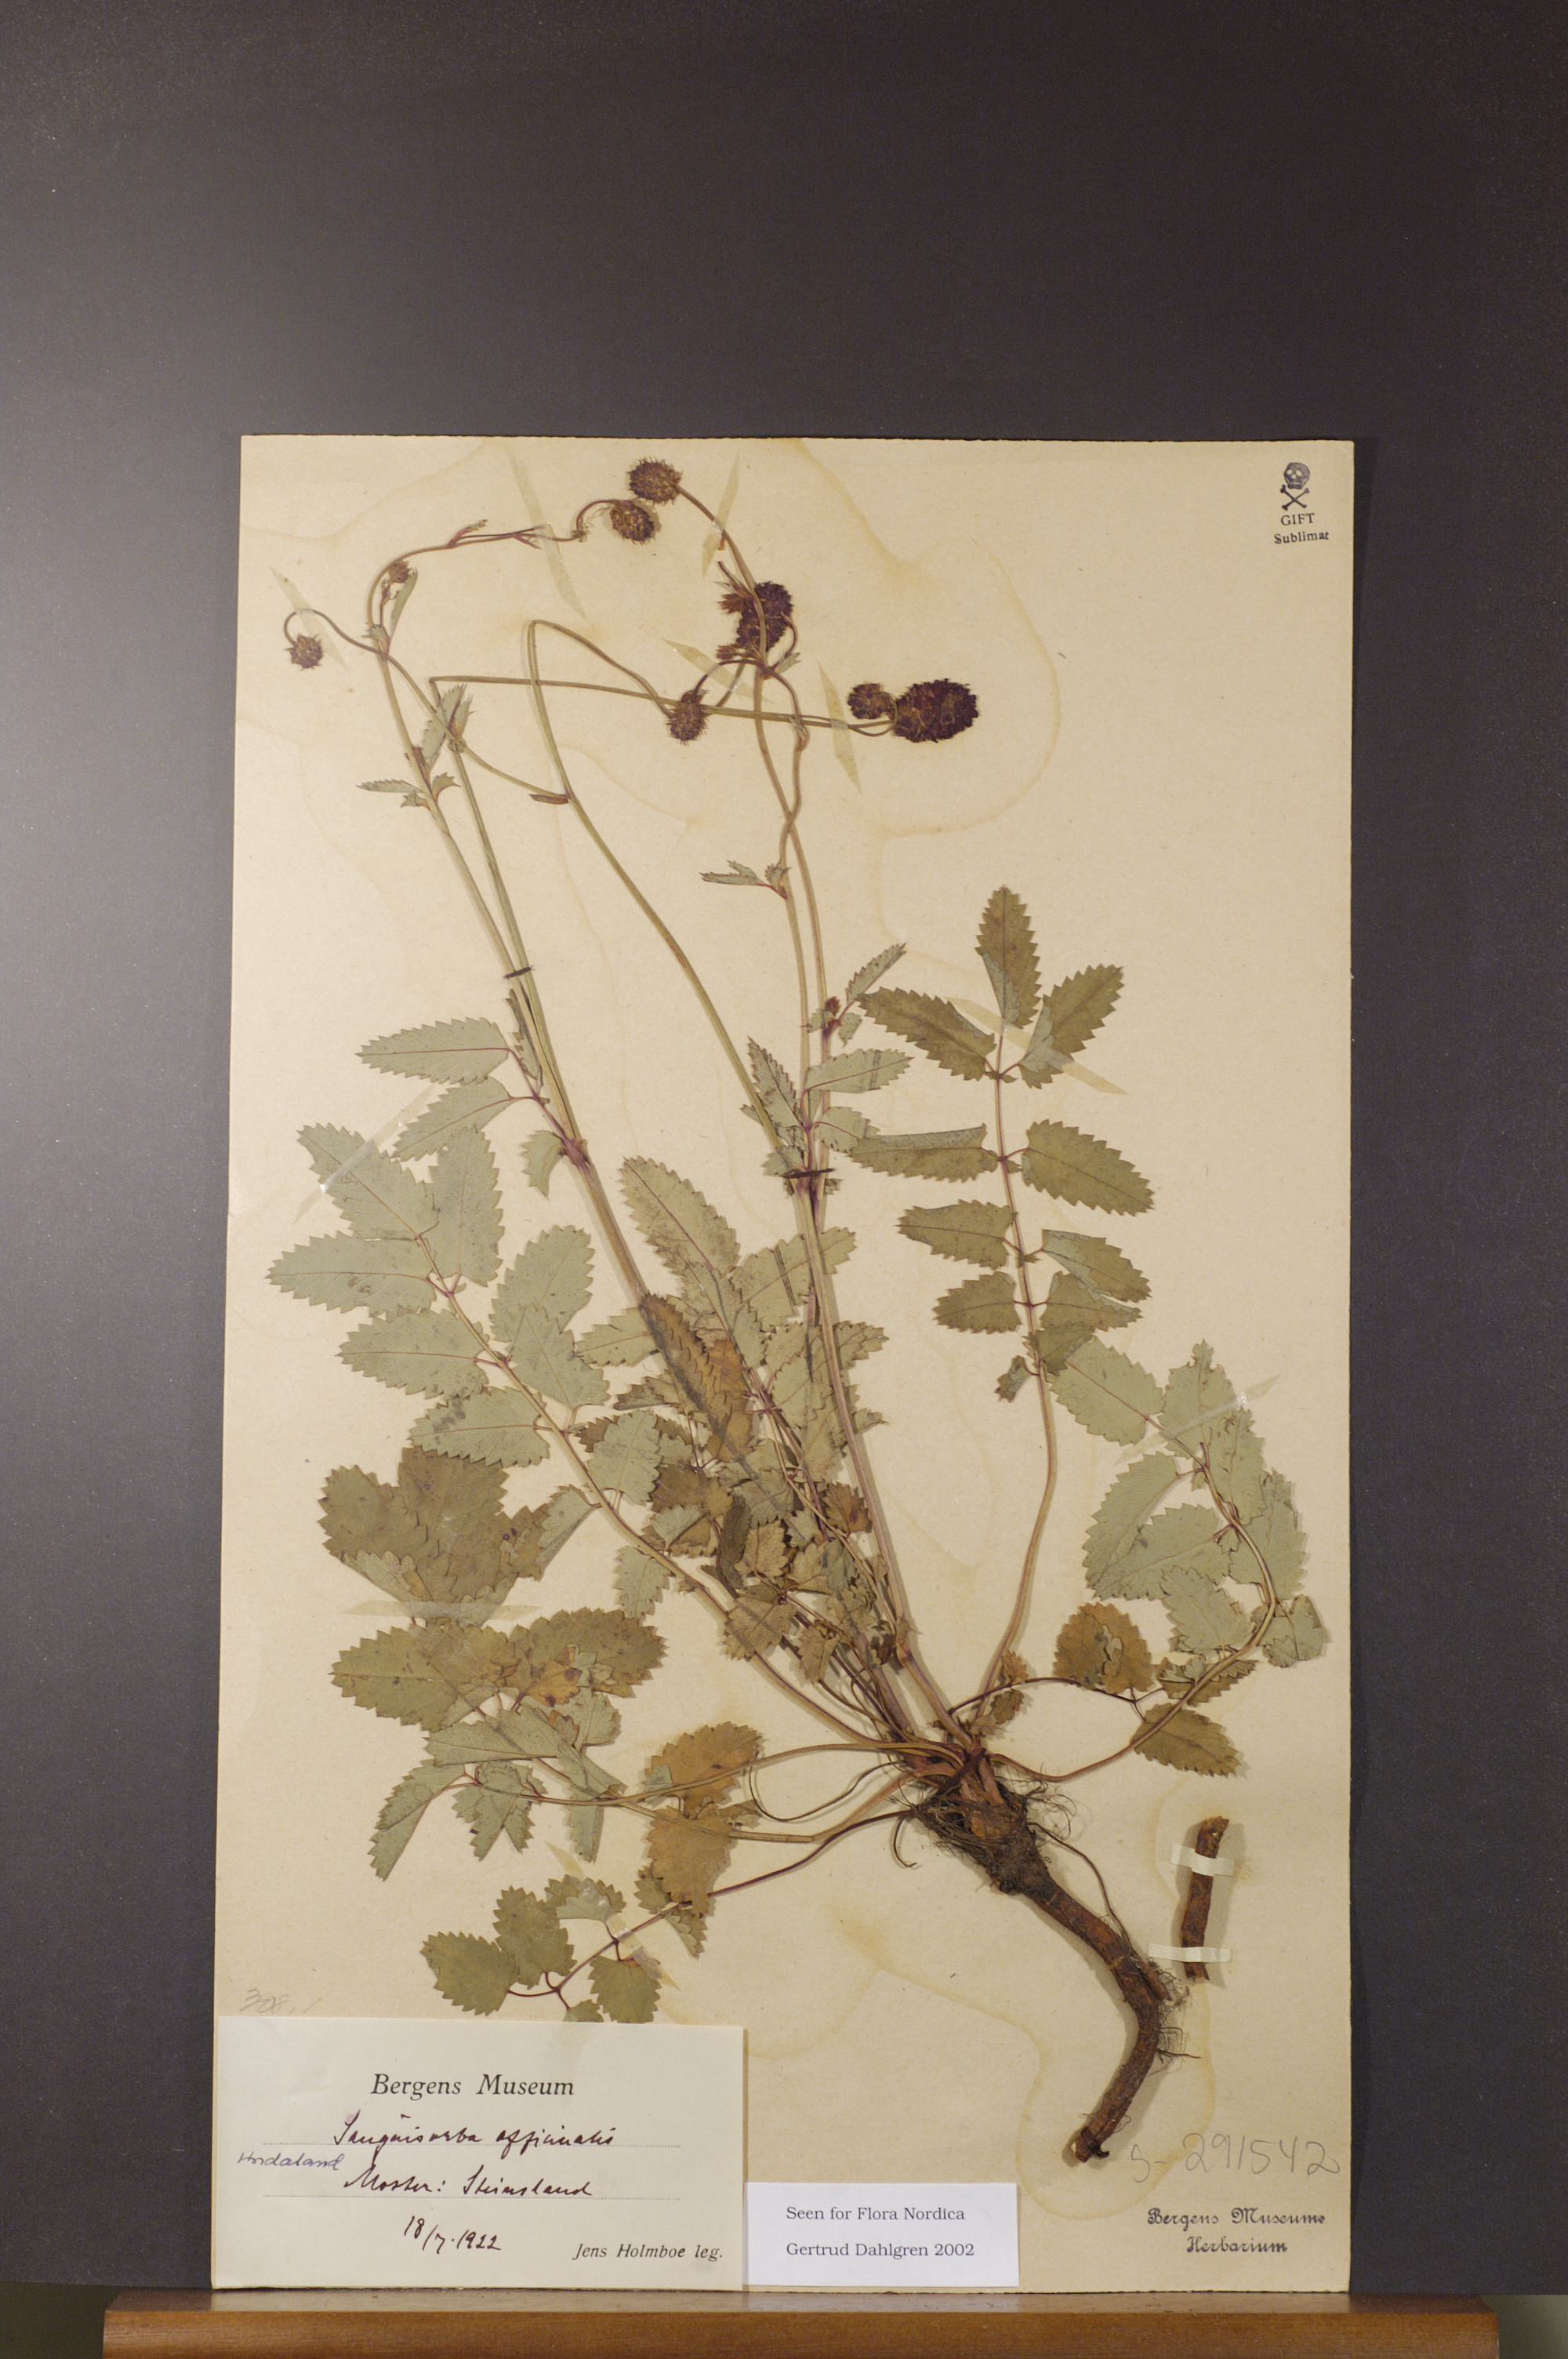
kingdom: Plantae
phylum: Tracheophyta
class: Magnoliopsida
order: Rosales
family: Rosaceae
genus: Sanguisorba
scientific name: Sanguisorba officinalis
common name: Great burnet
